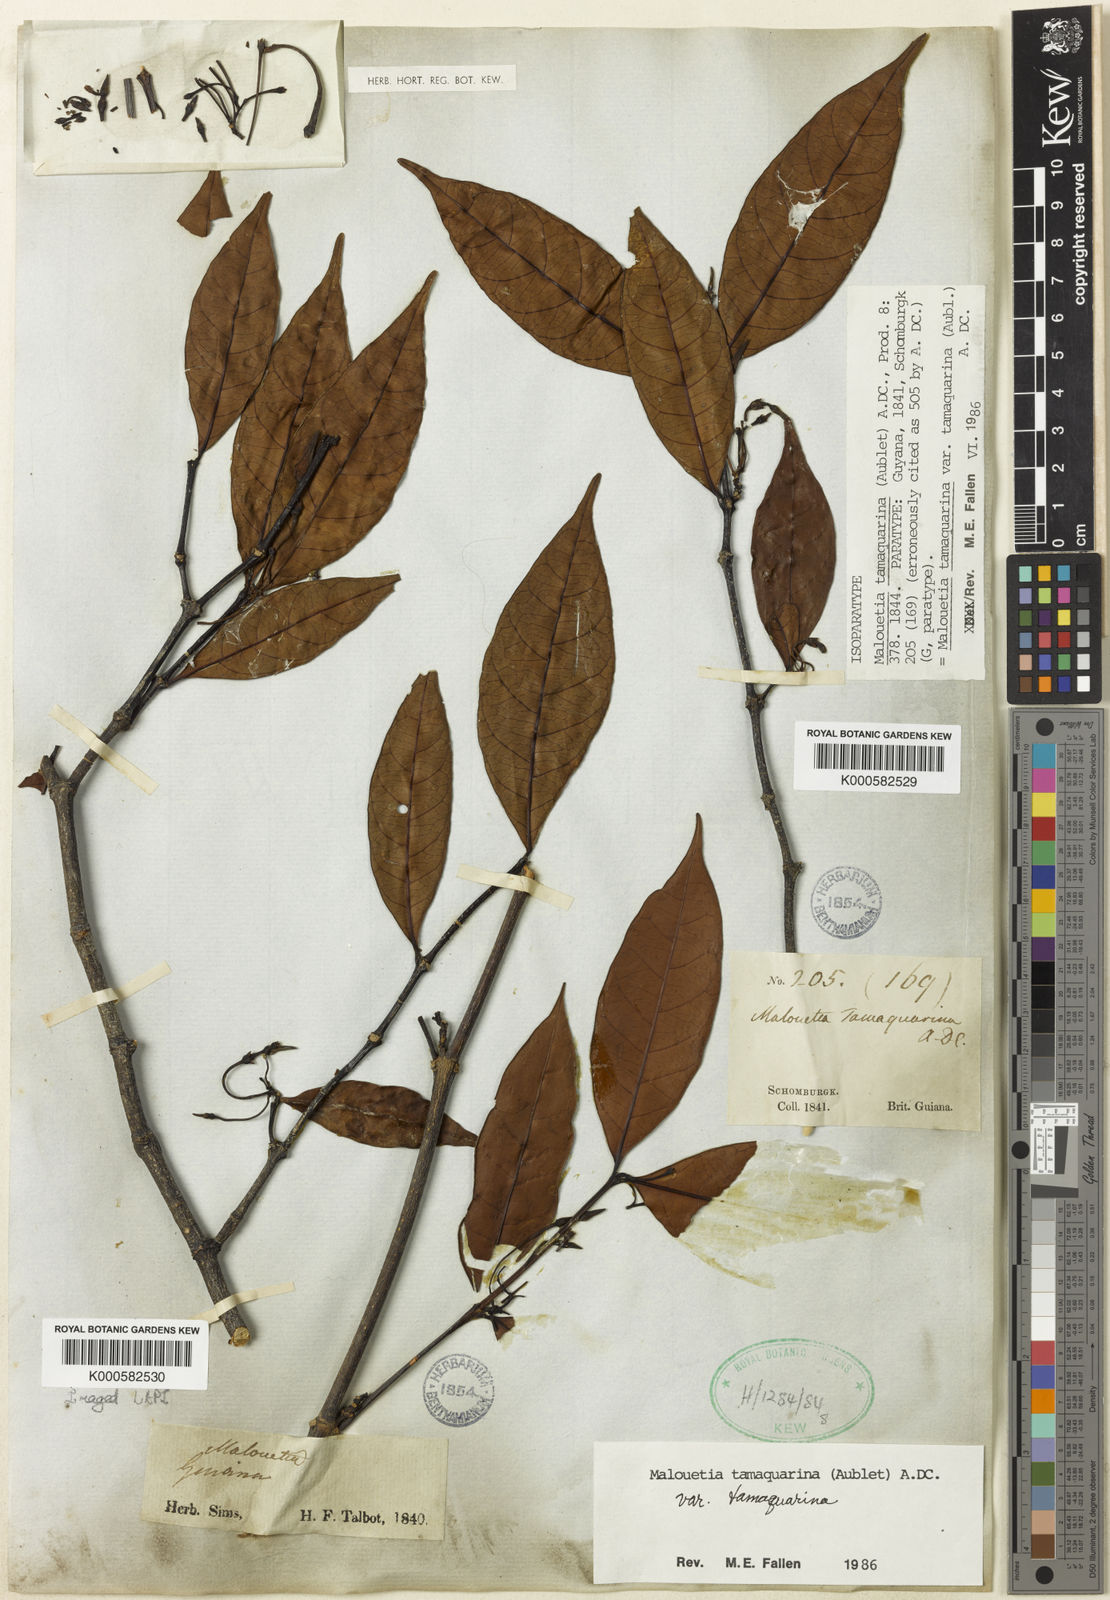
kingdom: Plantae
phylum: Tracheophyta
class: Magnoliopsida
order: Gentianales
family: Apocynaceae
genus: Malouetia
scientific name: Malouetia tamaquarina
